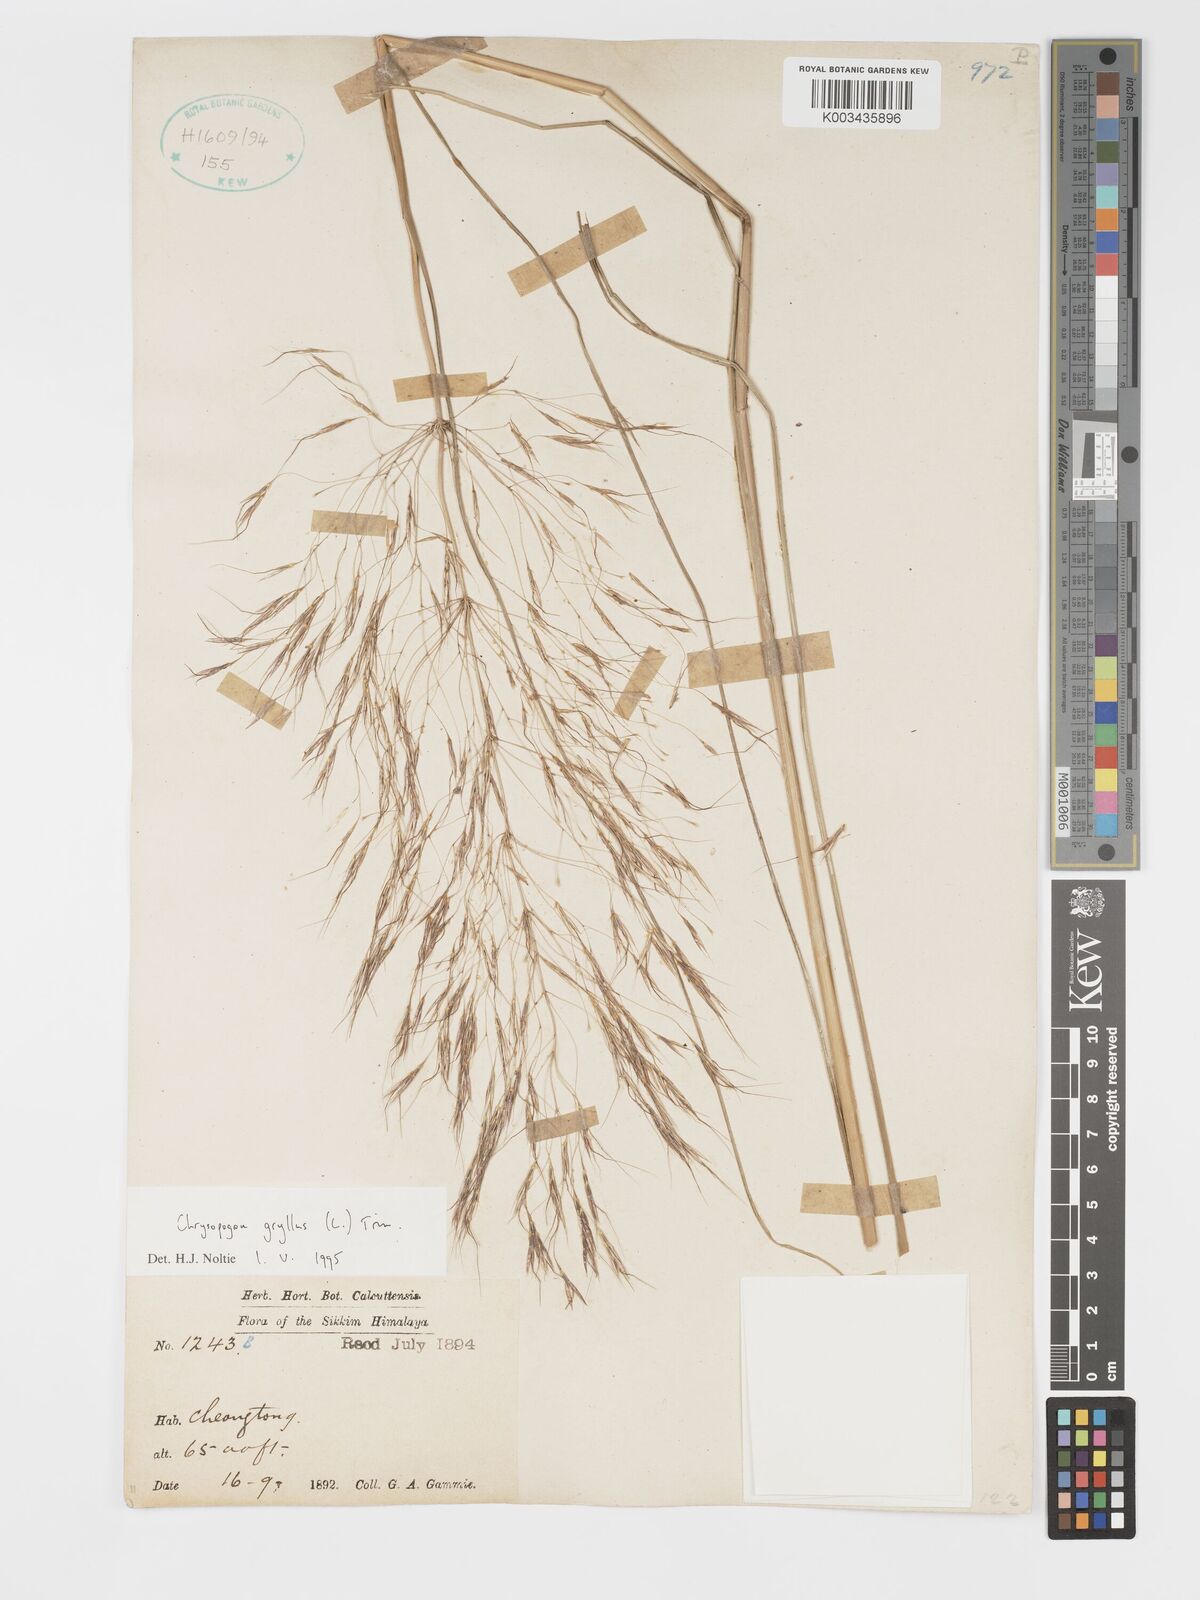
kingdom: Plantae
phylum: Tracheophyta
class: Liliopsida
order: Poales
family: Poaceae
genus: Chrysopogon
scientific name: Chrysopogon gryllus
